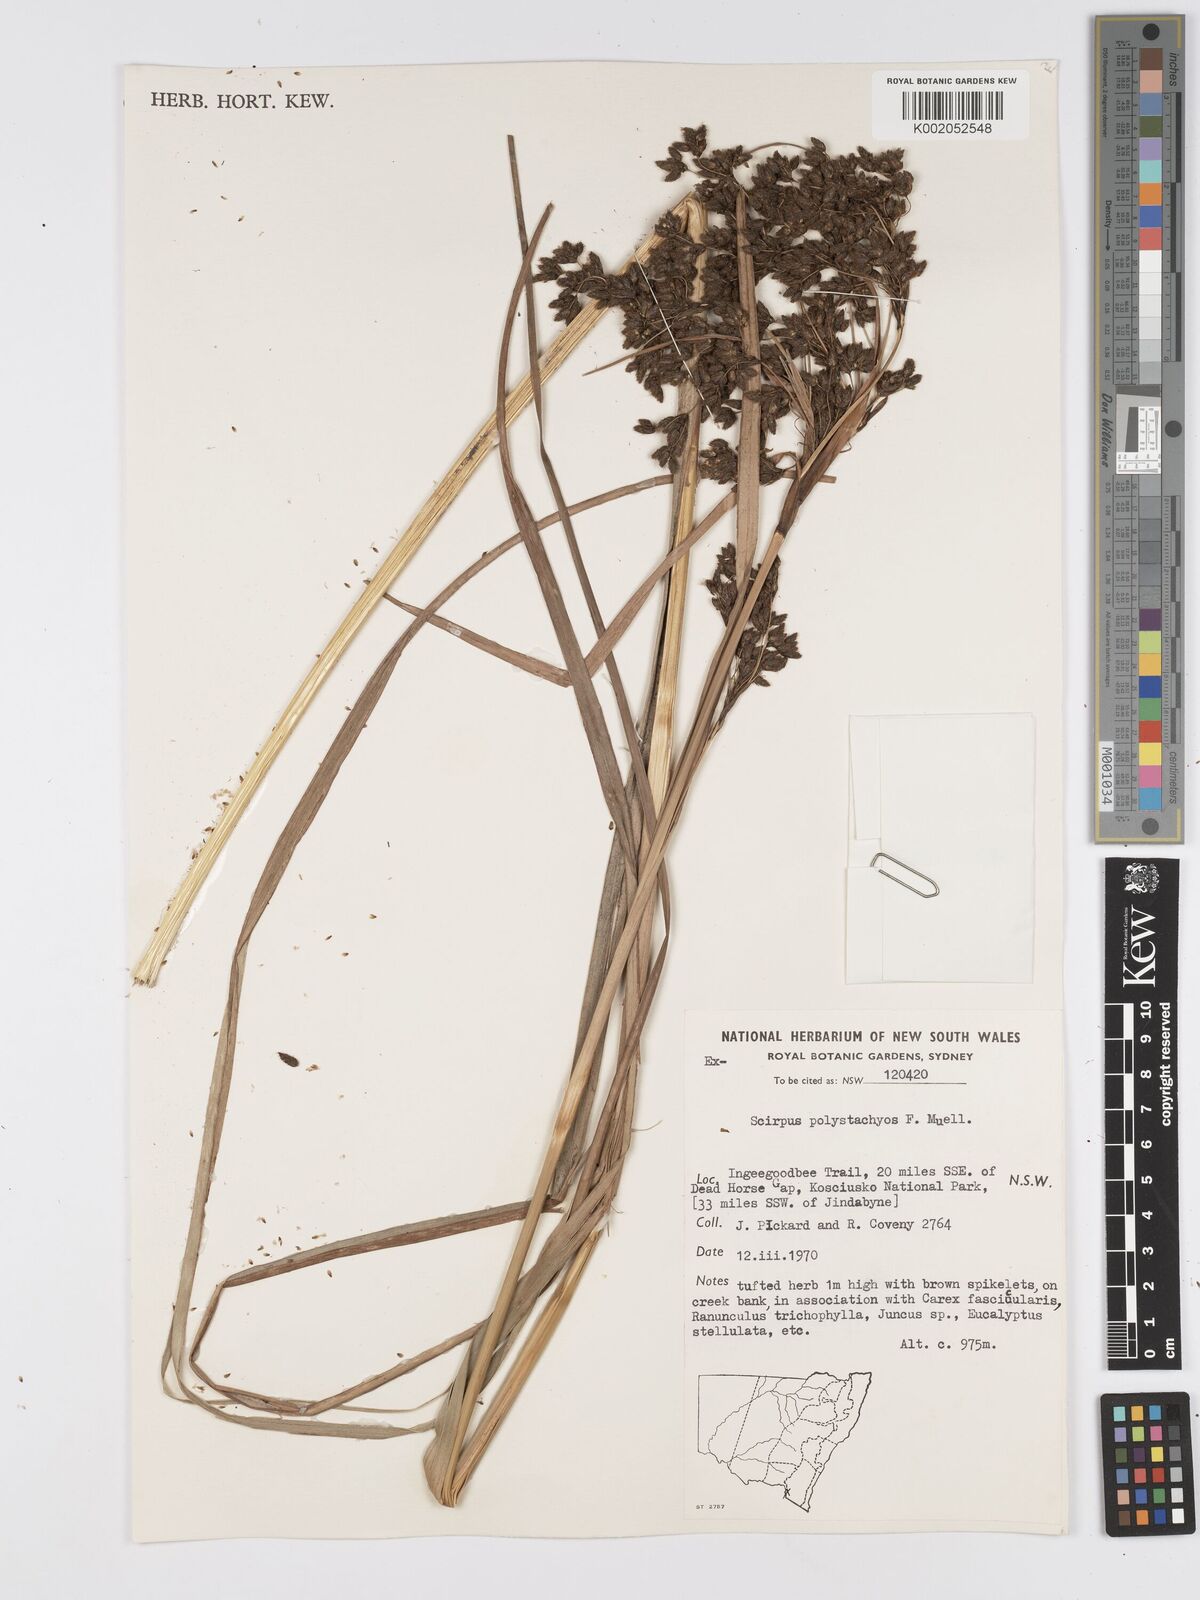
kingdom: Plantae
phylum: Tracheophyta
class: Liliopsida
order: Poales
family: Cyperaceae
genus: Scirpus
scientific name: Scirpus polystachyus
